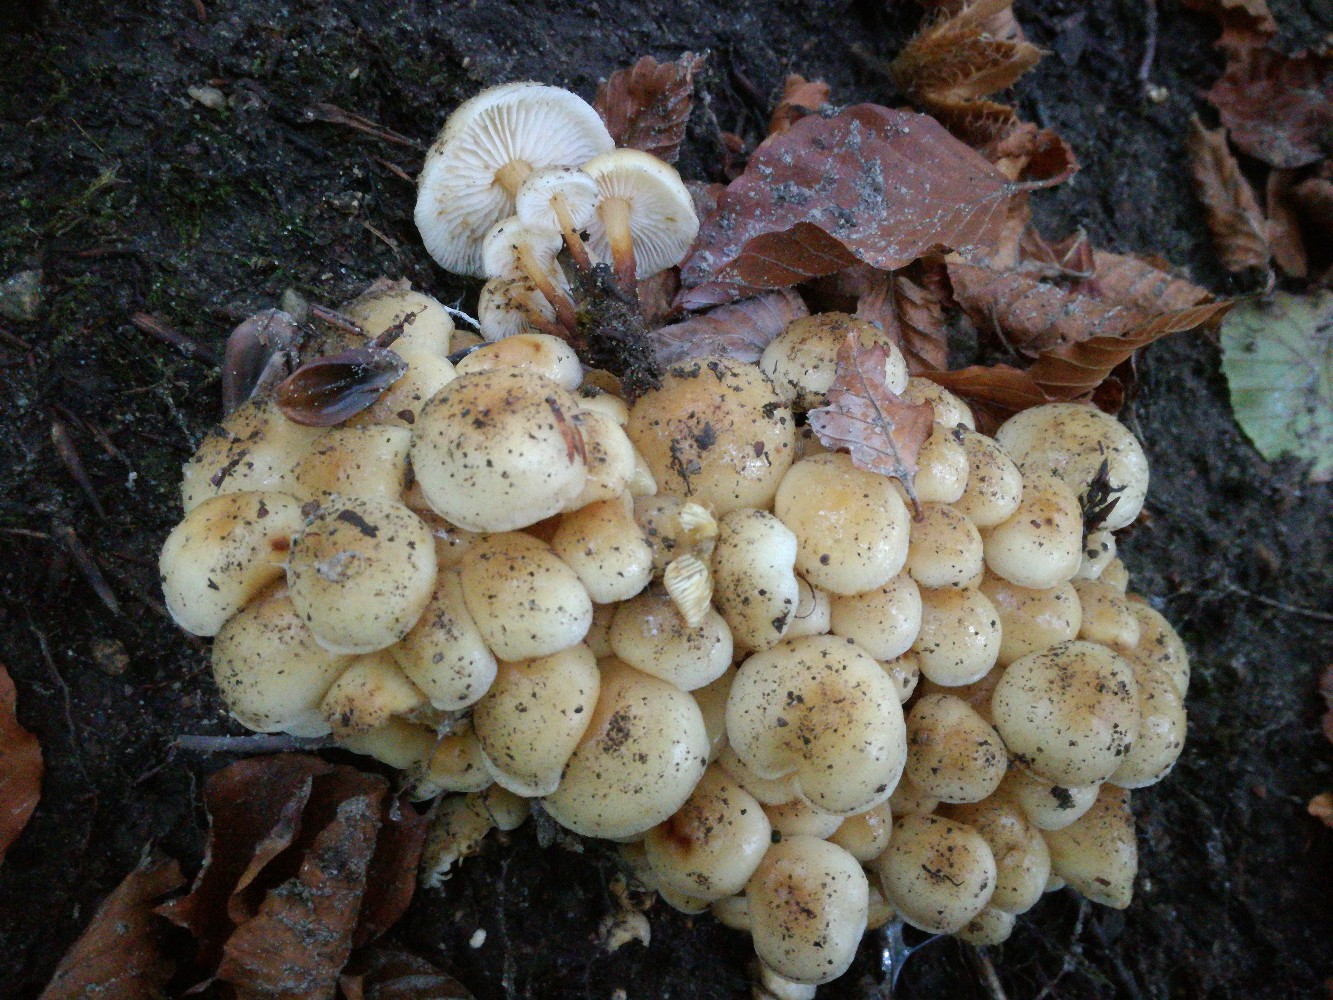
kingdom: Fungi
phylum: Basidiomycota
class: Agaricomycetes
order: Agaricales
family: Physalacriaceae
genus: Flammulina
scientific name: Flammulina fennae
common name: rodslående fløjlsfod
